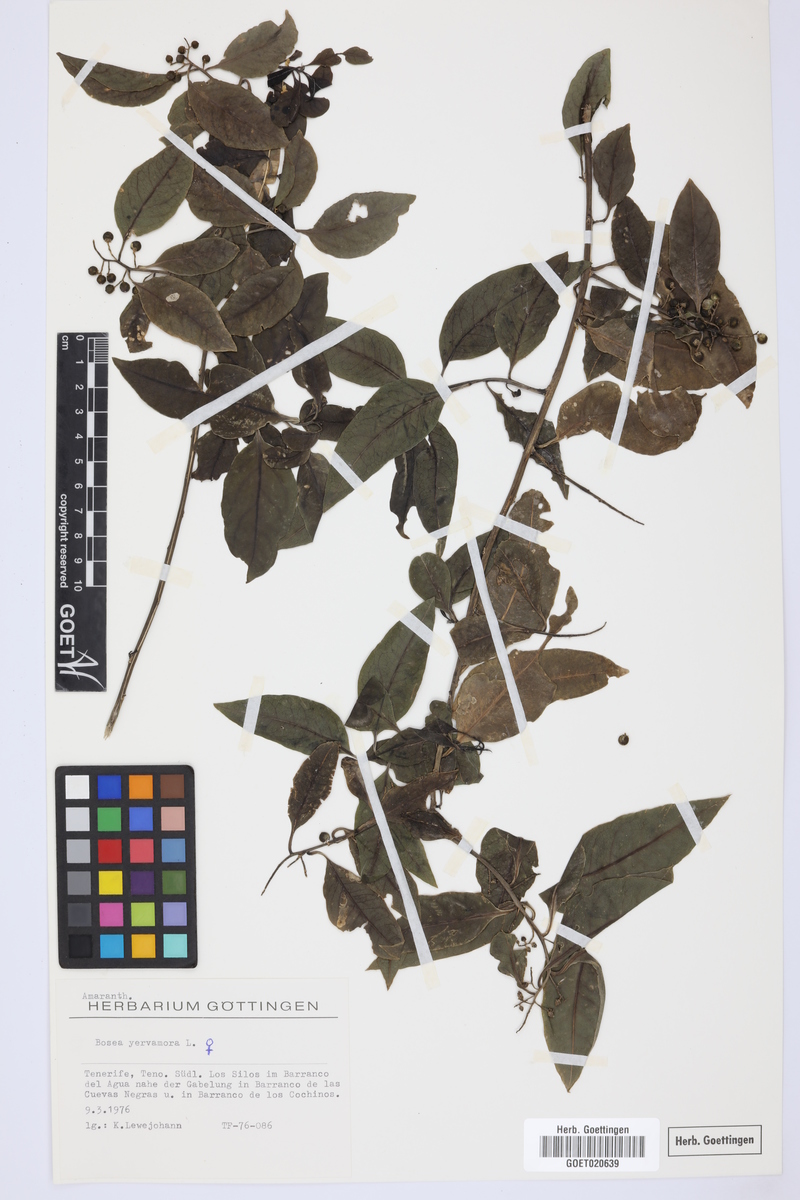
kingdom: Plantae
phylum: Tracheophyta
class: Magnoliopsida
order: Caryophyllales
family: Amaranthaceae
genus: Bosea
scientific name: Bosea yervamora
